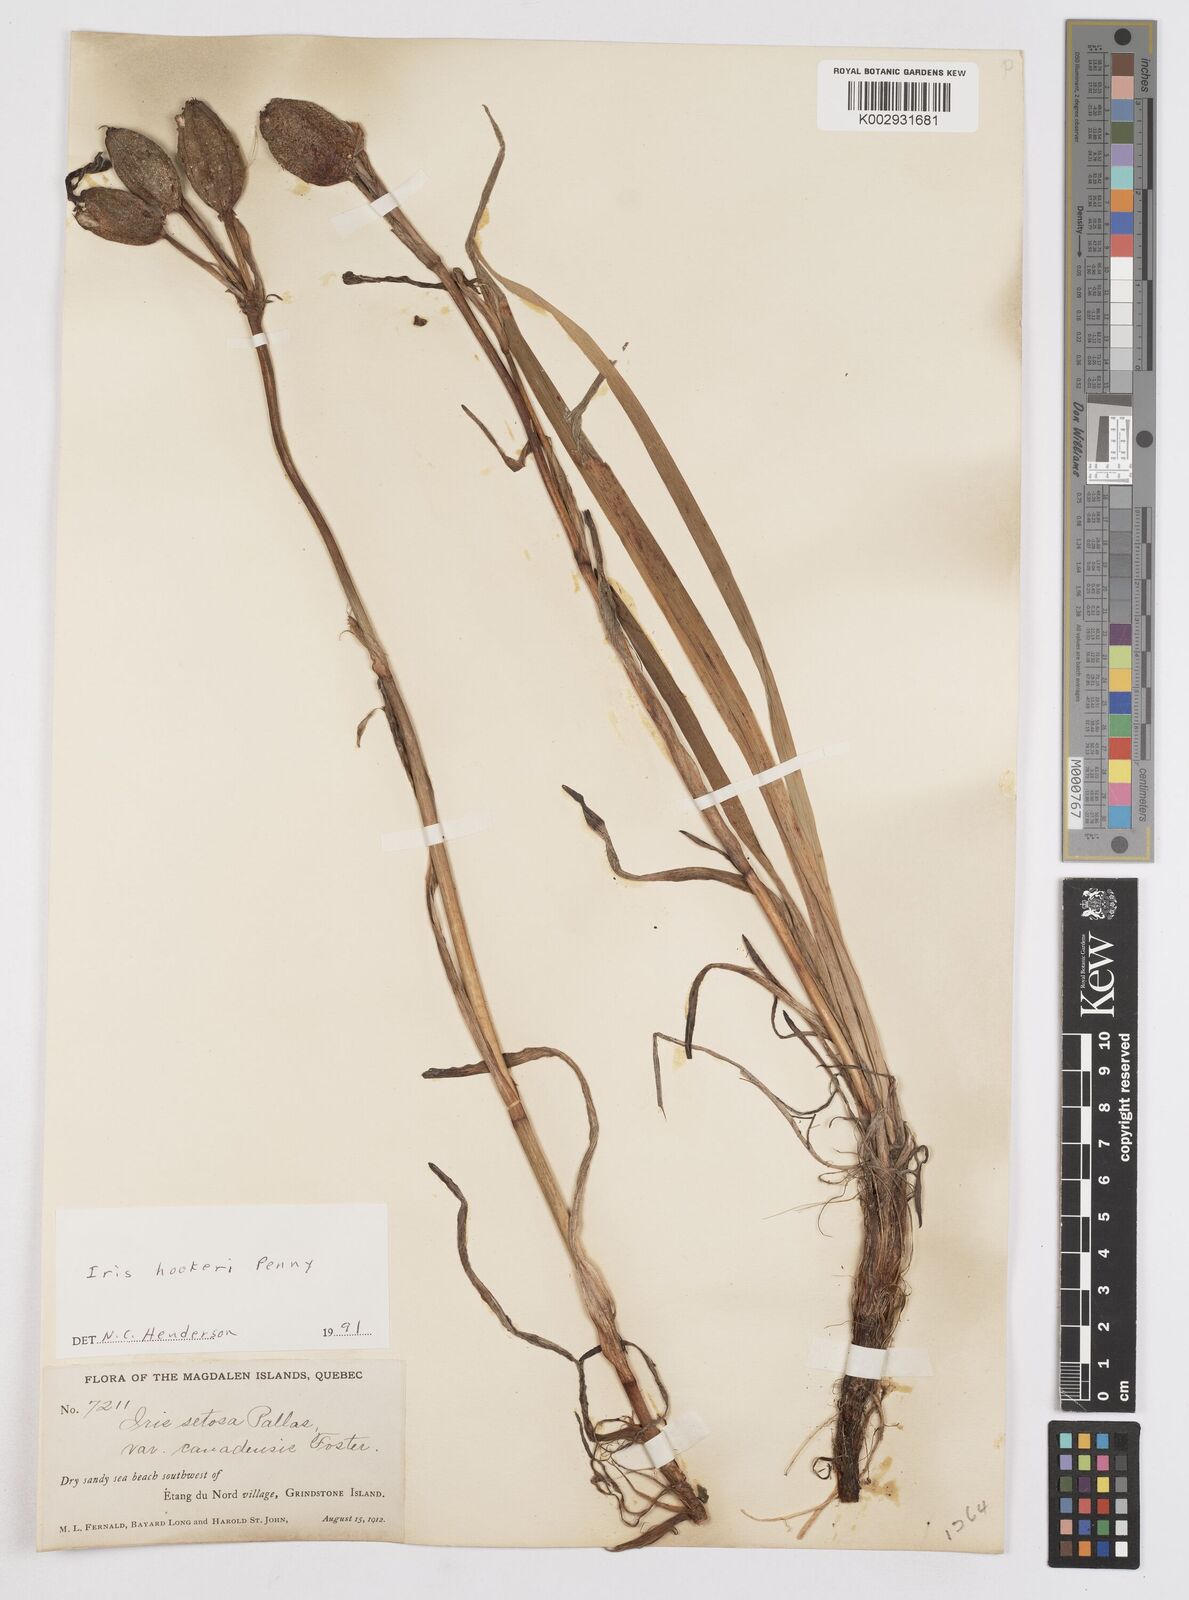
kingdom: Plantae
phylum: Tracheophyta
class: Liliopsida
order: Asparagales
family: Iridaceae
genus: Iris
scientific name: Iris setosa
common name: Arctic blue flag
